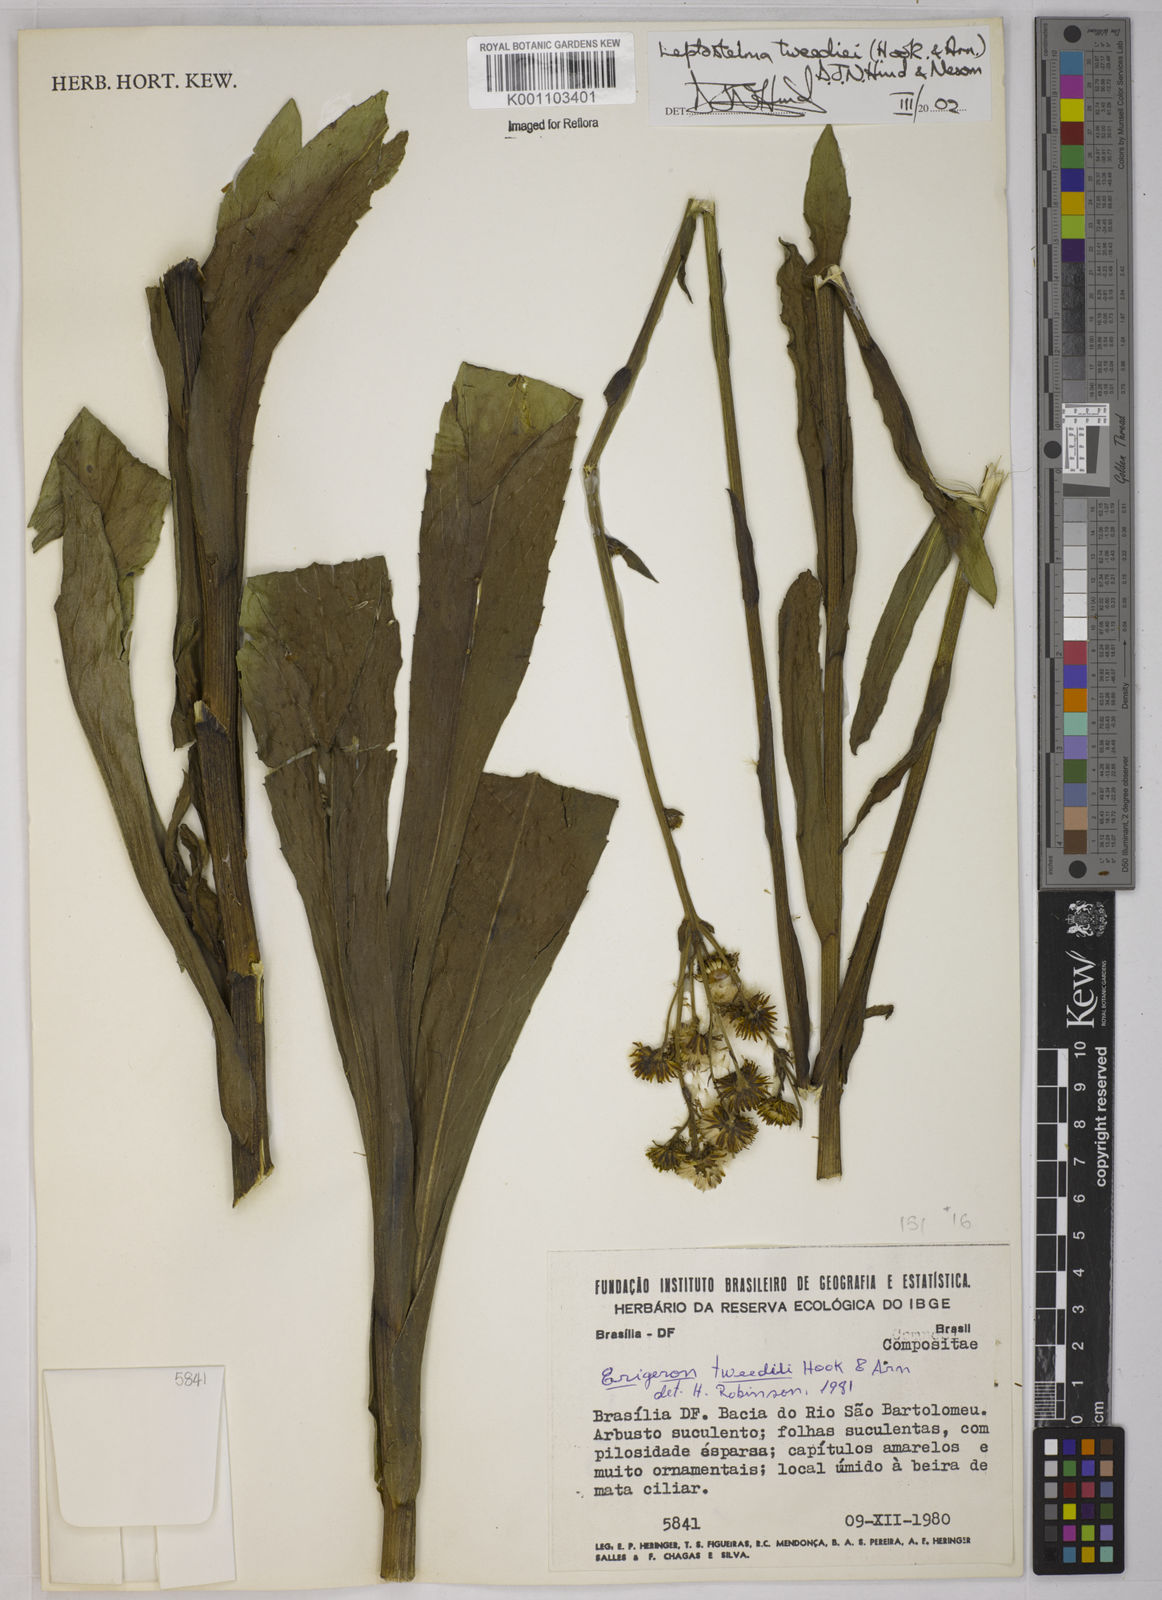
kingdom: Plantae
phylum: Tracheophyta
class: Magnoliopsida
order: Asterales
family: Asteraceae
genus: Leptostelma
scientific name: Leptostelma tweediei
